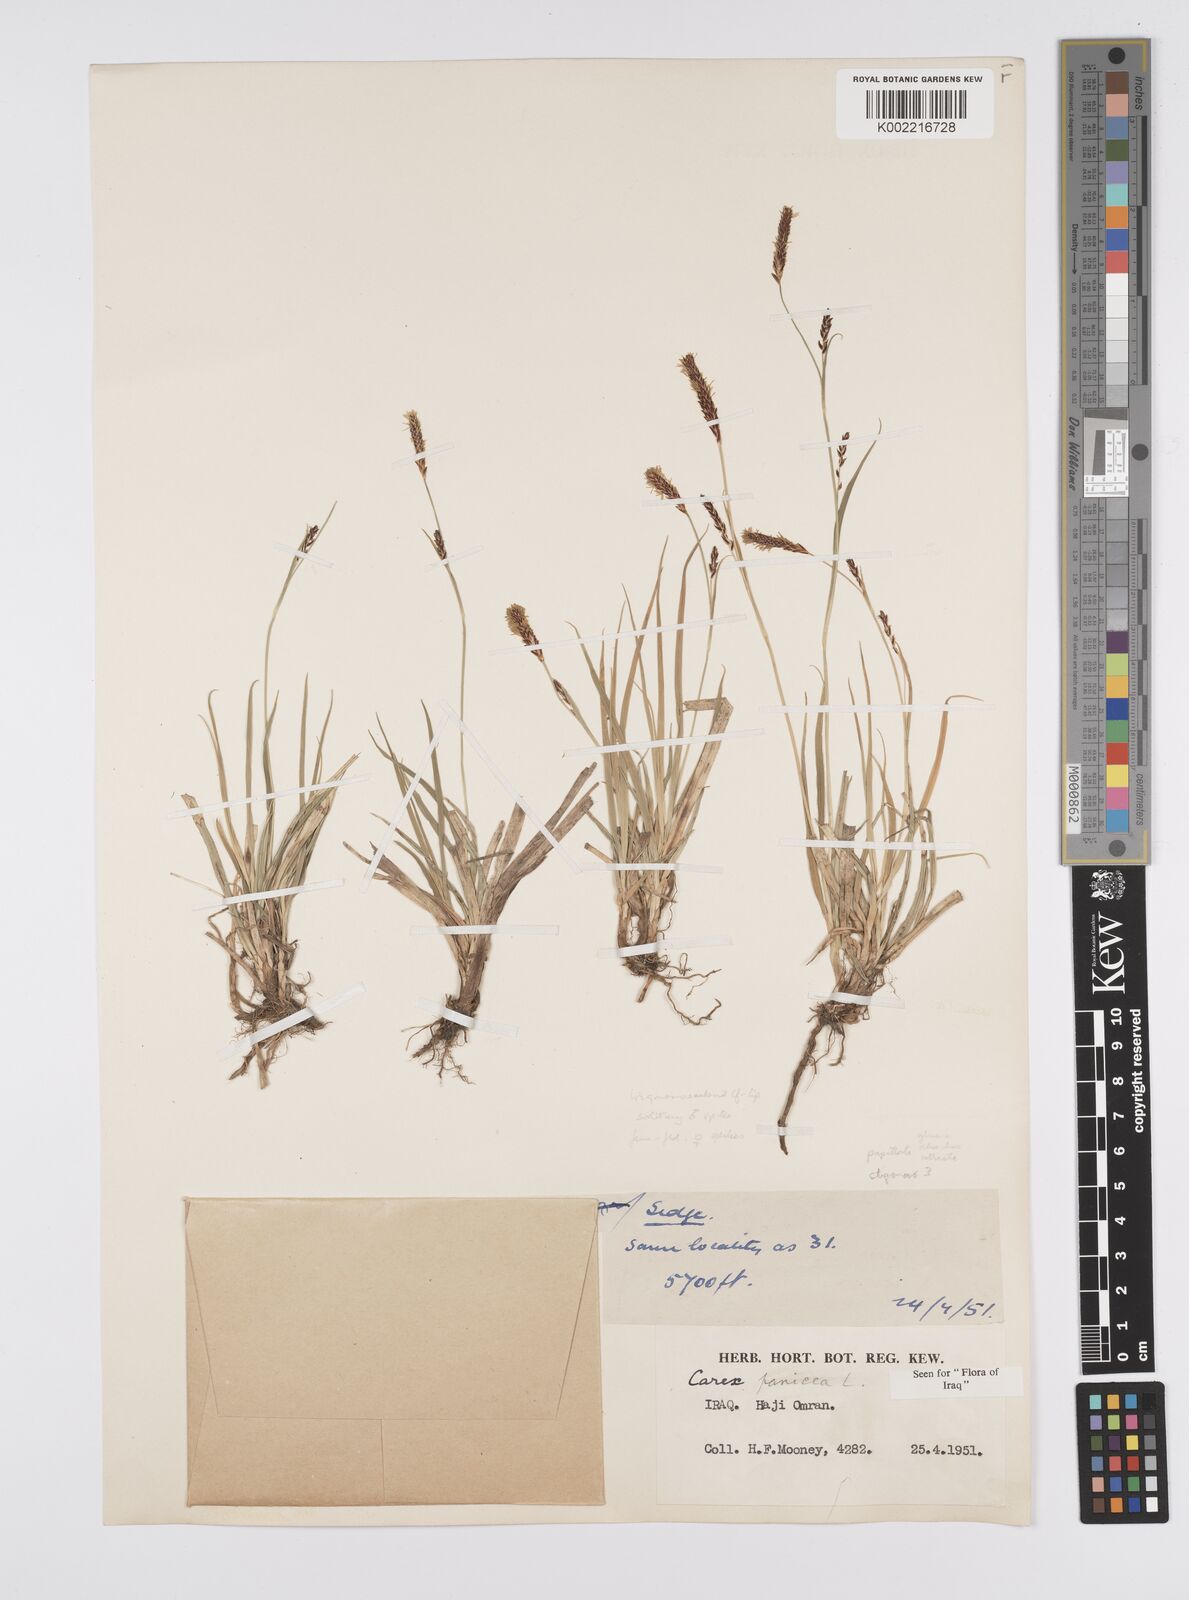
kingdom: Plantae
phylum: Tracheophyta
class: Liliopsida
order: Poales
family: Cyperaceae
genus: Carex
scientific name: Carex panicea
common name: Carnation sedge
